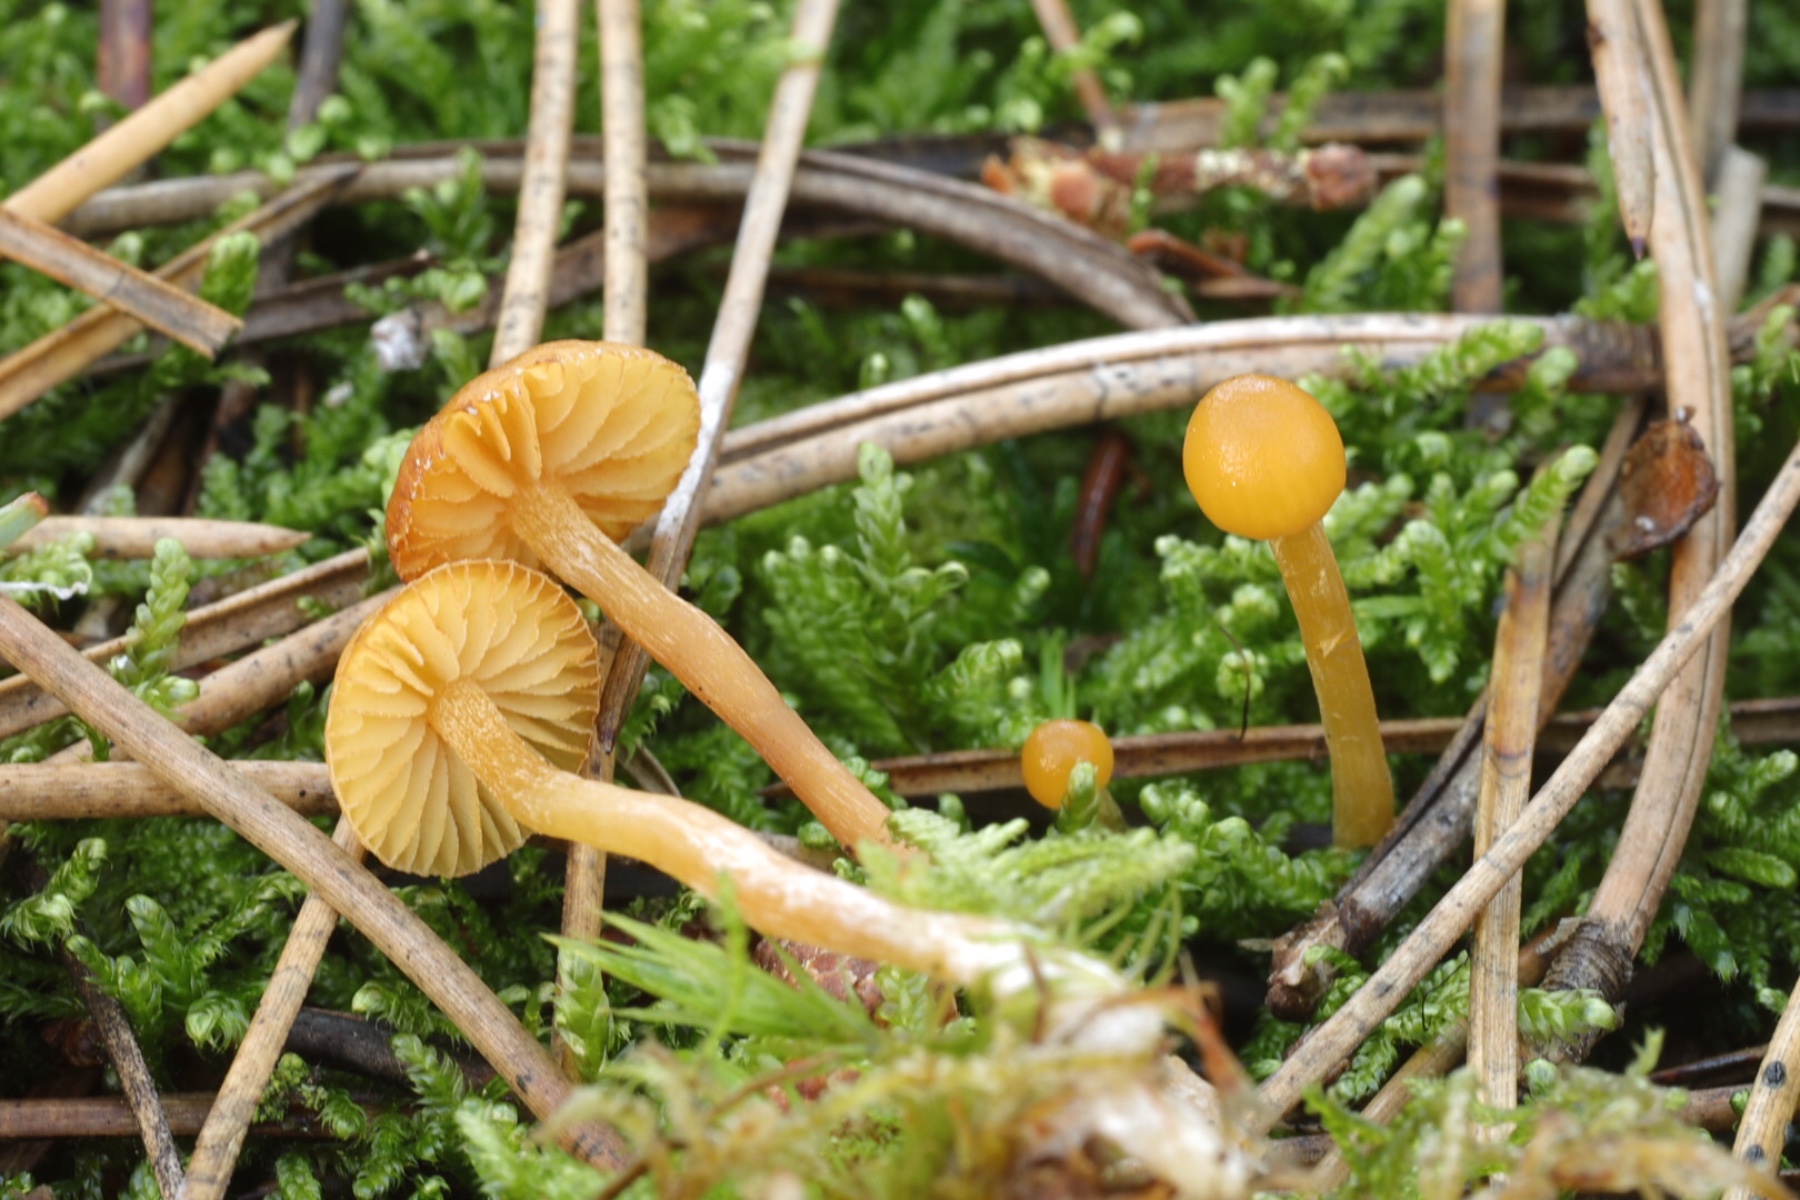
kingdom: Fungi
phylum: Basidiomycota
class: Agaricomycetes
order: Agaricales
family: Hymenogastraceae
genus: Galerina
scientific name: Galerina pumila
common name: honninggul hjelmhat
